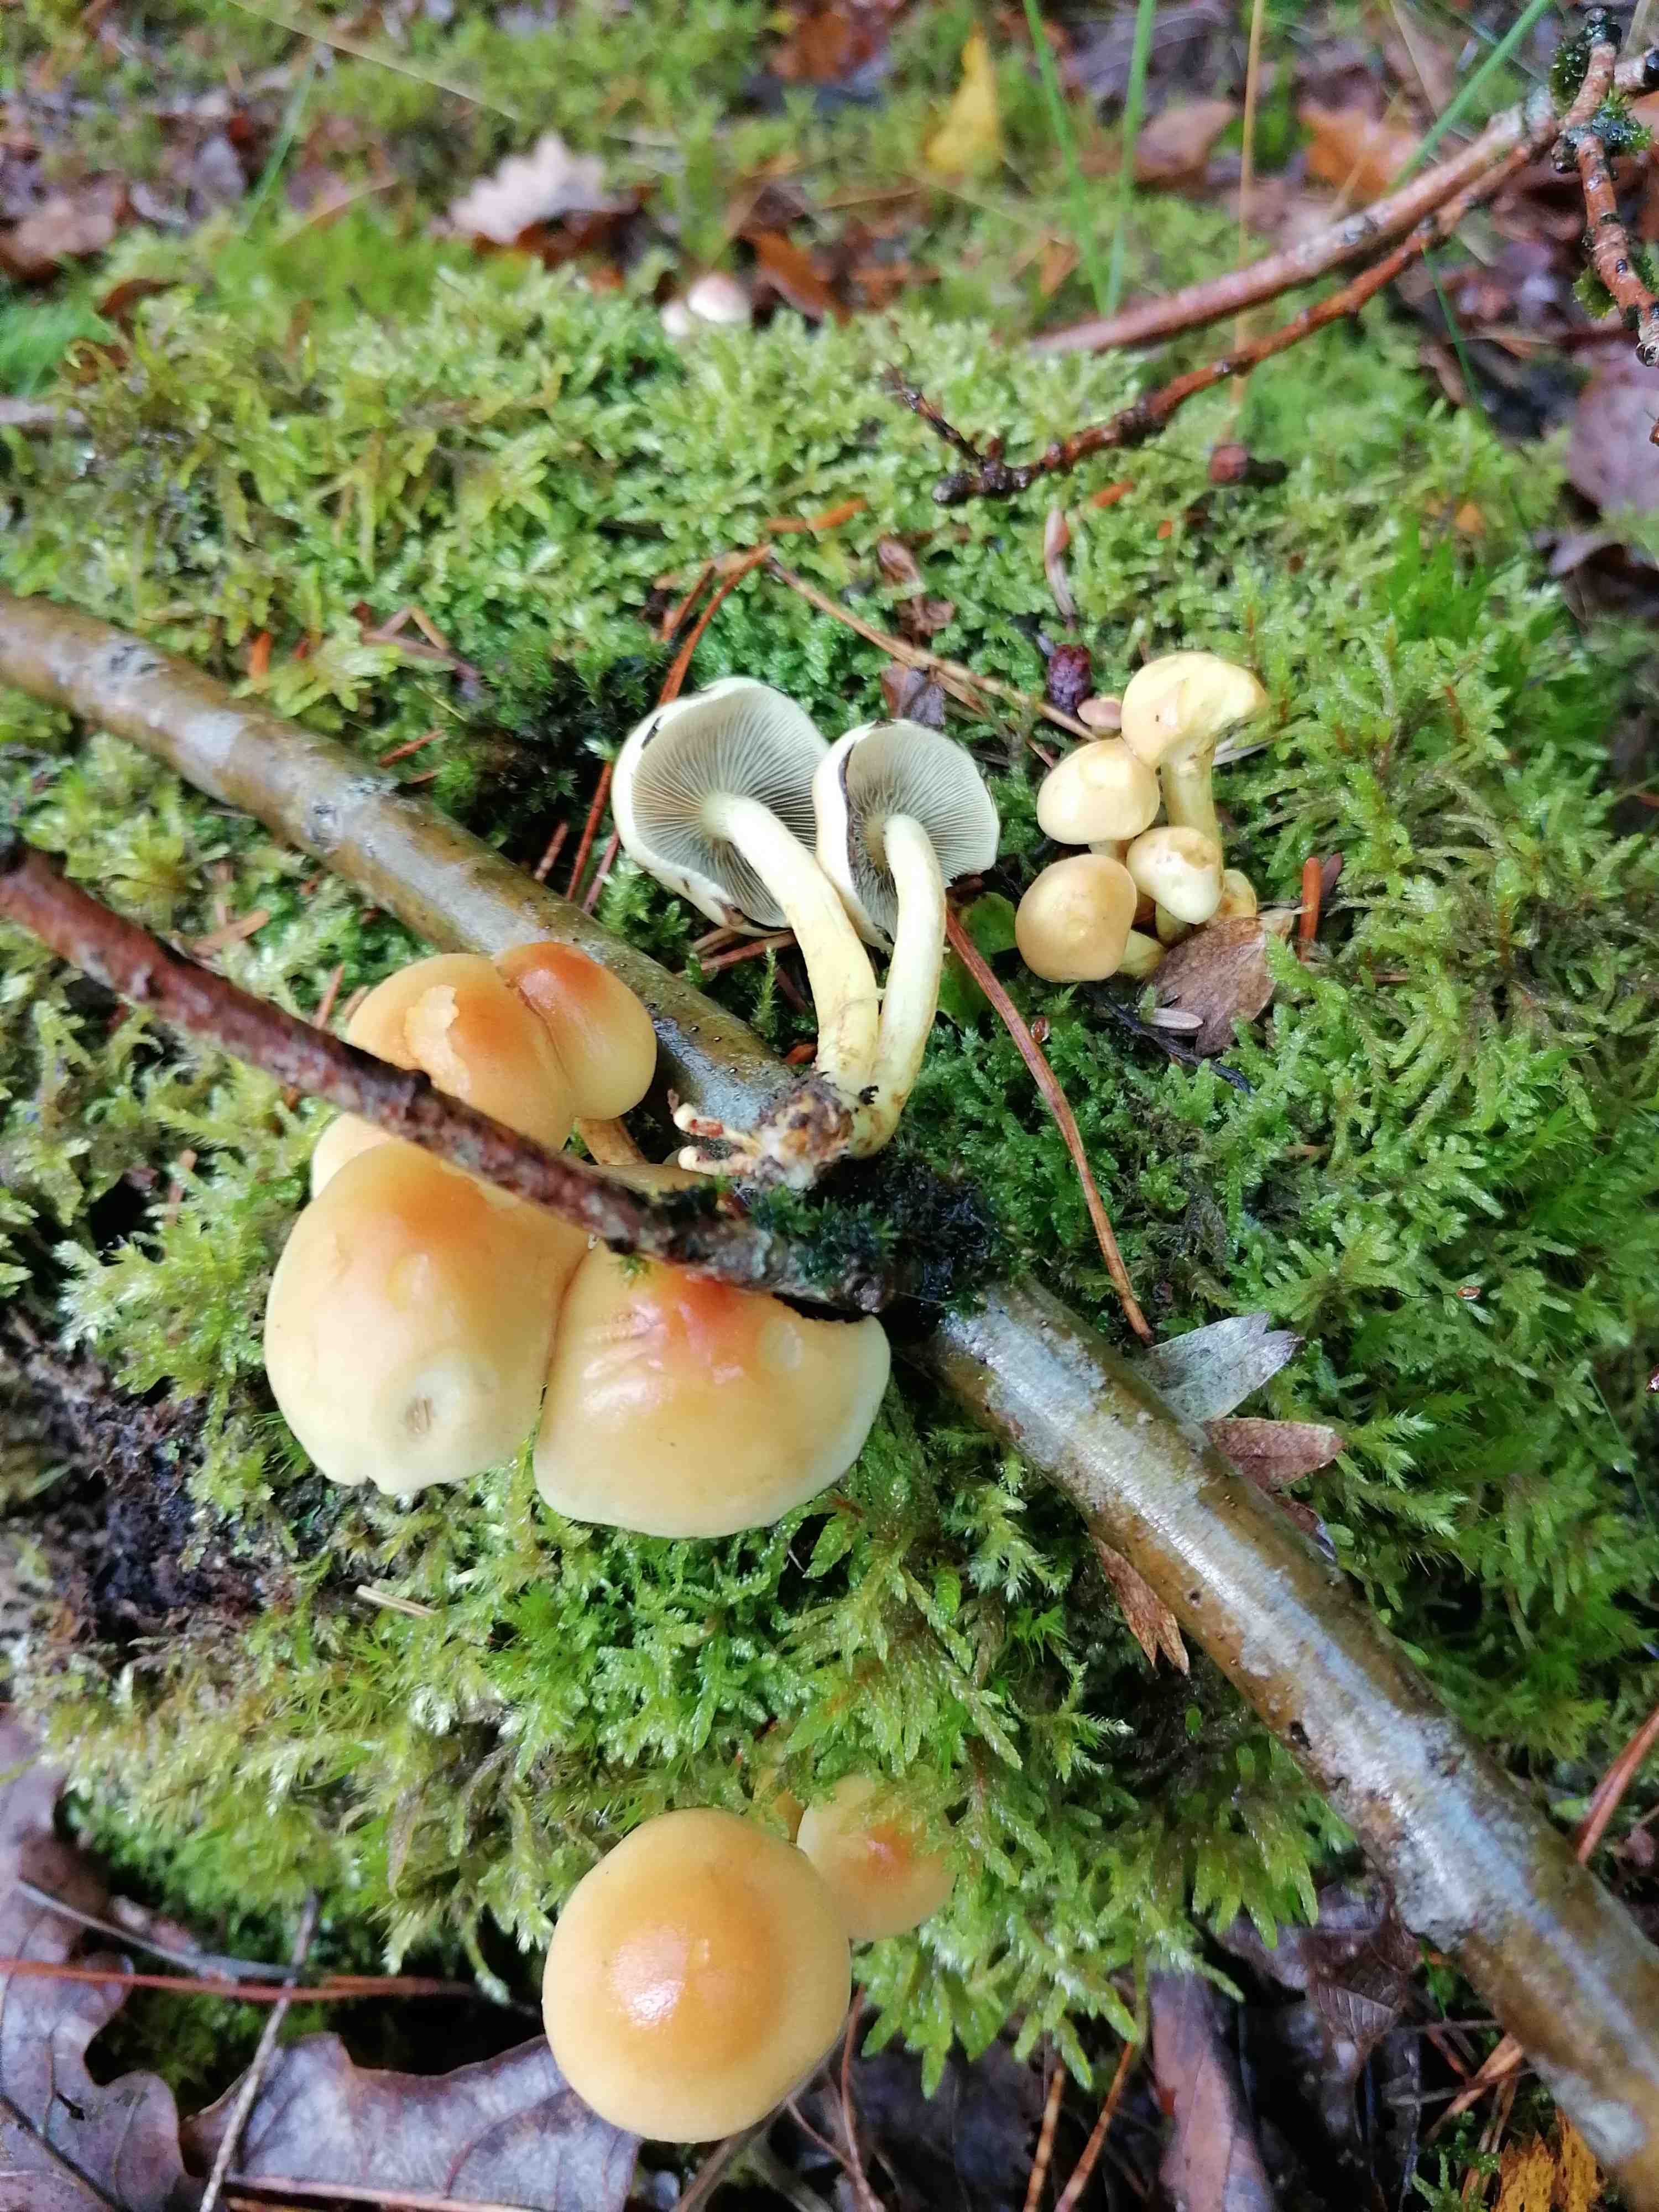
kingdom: Fungi
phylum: Basidiomycota
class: Agaricomycetes
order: Agaricales
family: Strophariaceae
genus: Hypholoma
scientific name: Hypholoma fasciculare
